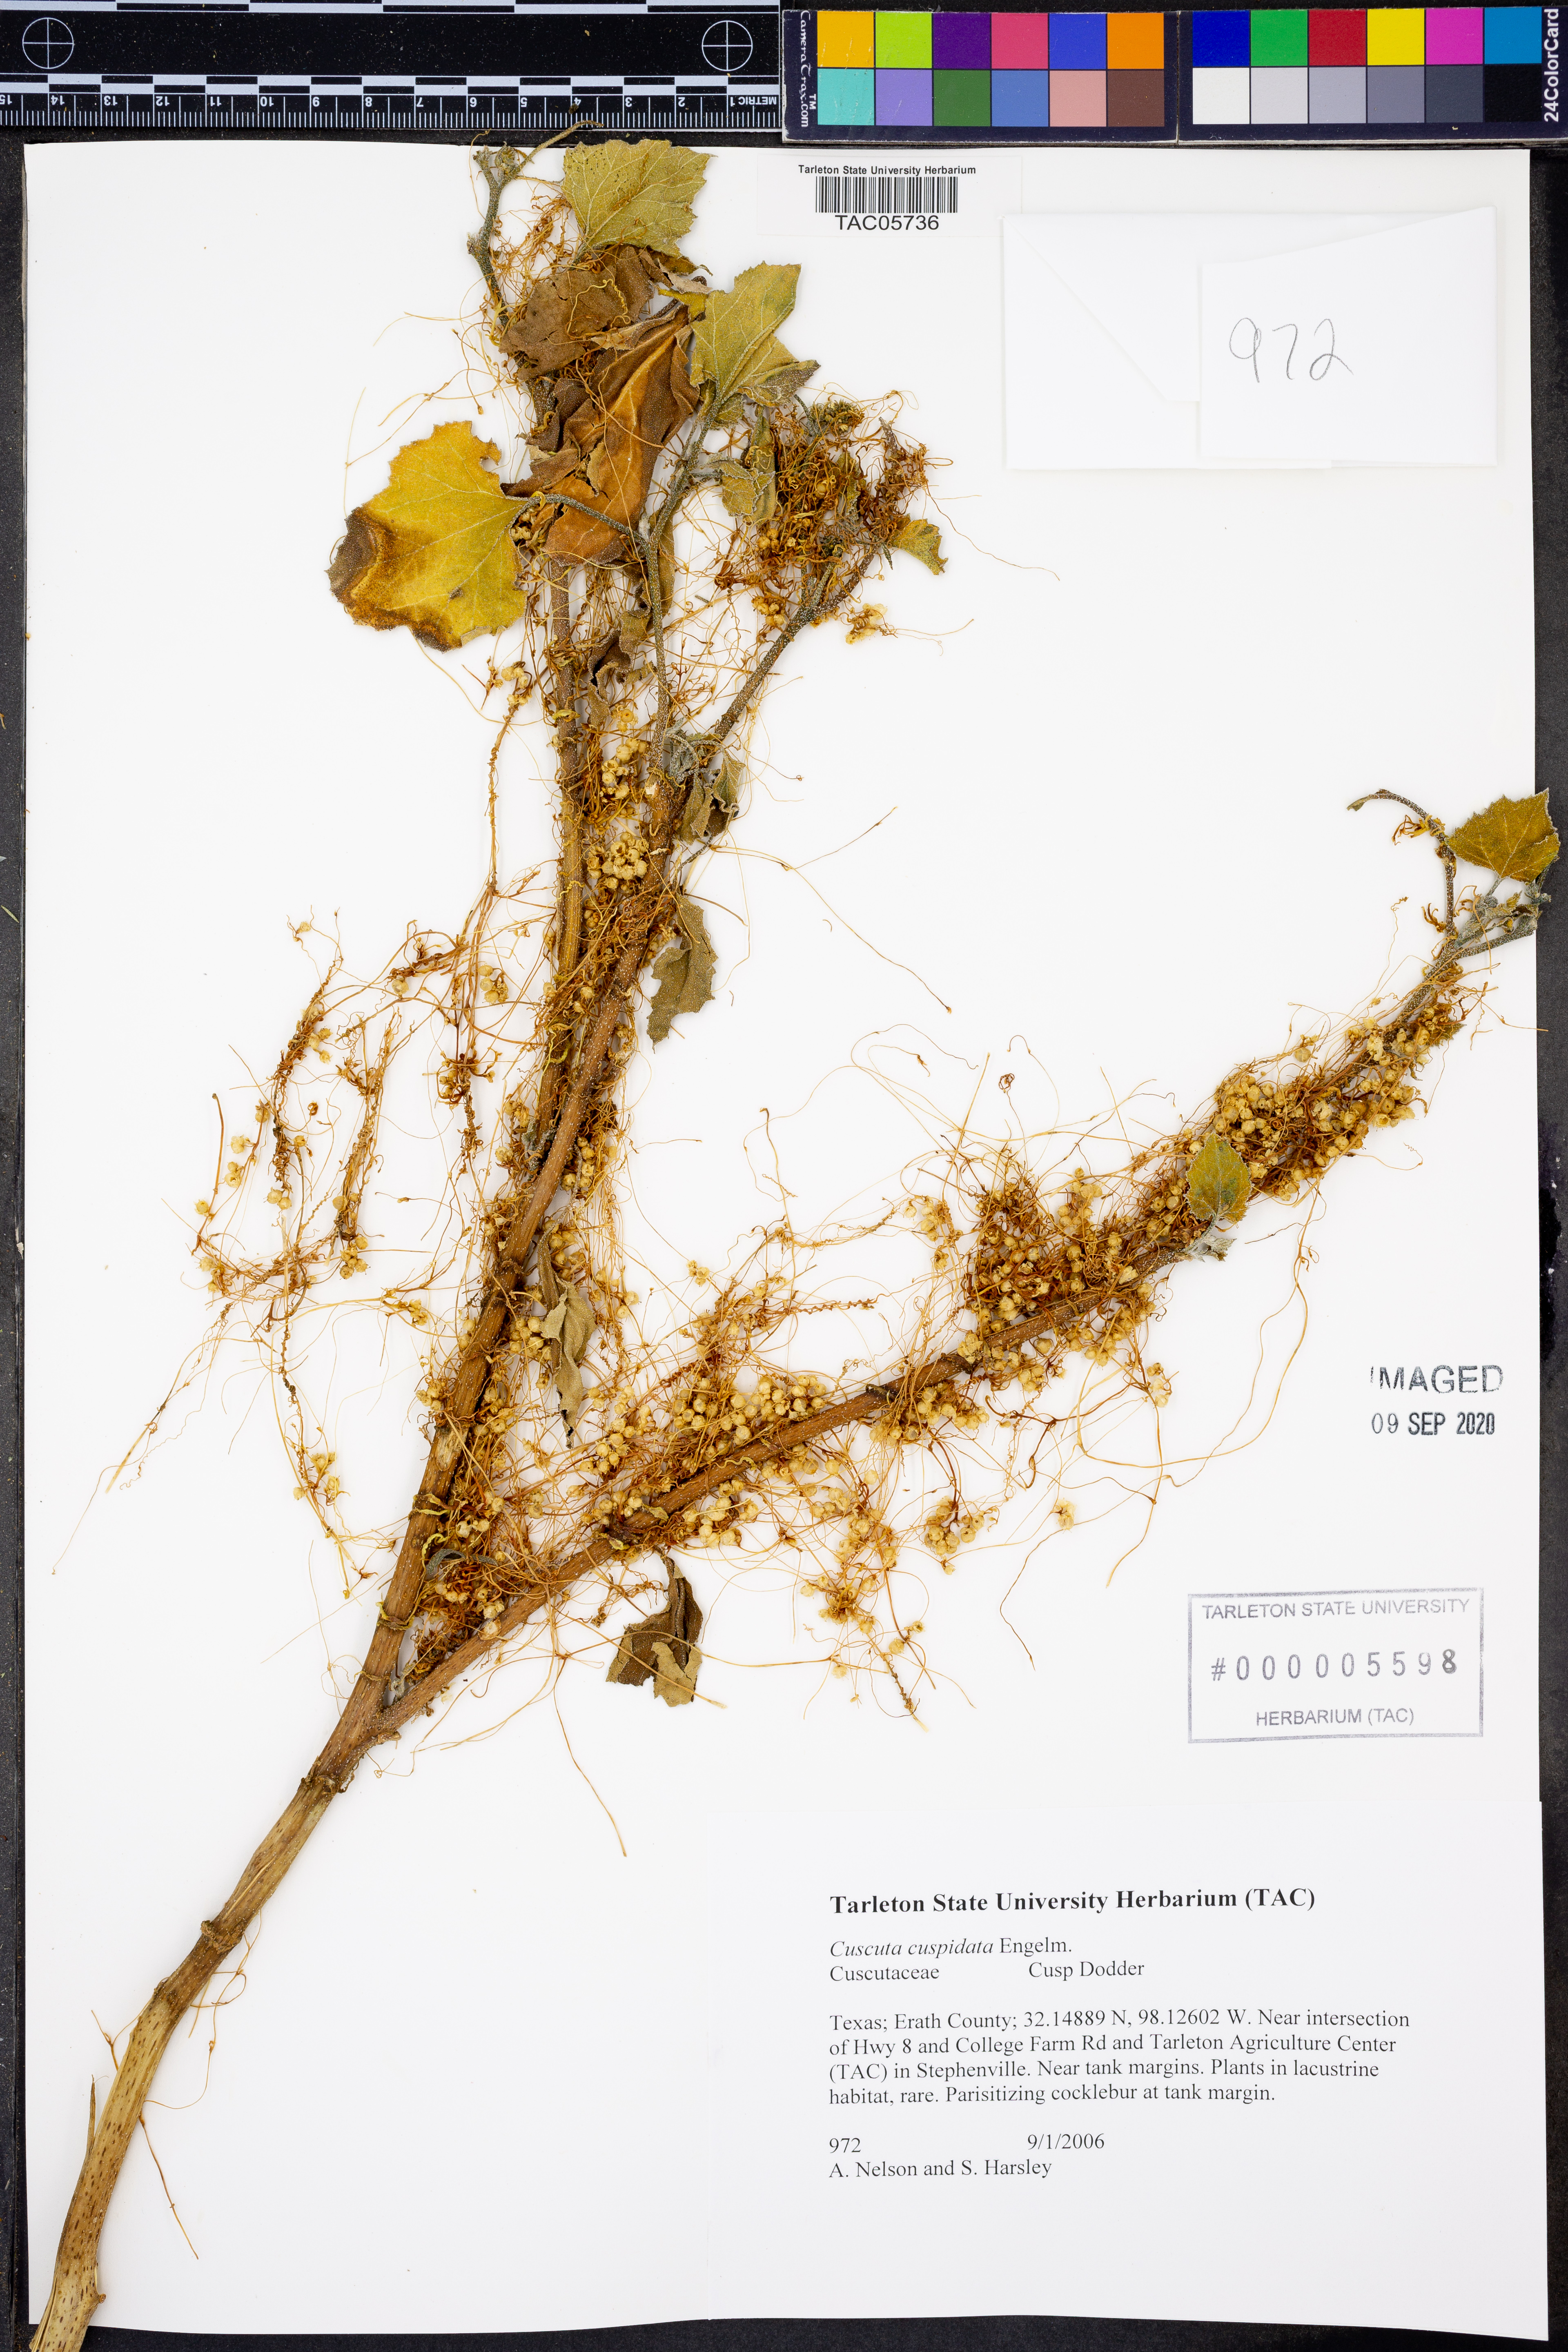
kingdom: Plantae
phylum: Tracheophyta
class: Magnoliopsida
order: Solanales
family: Convolvulaceae
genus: Cuscuta
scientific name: Cuscuta cuspidata
